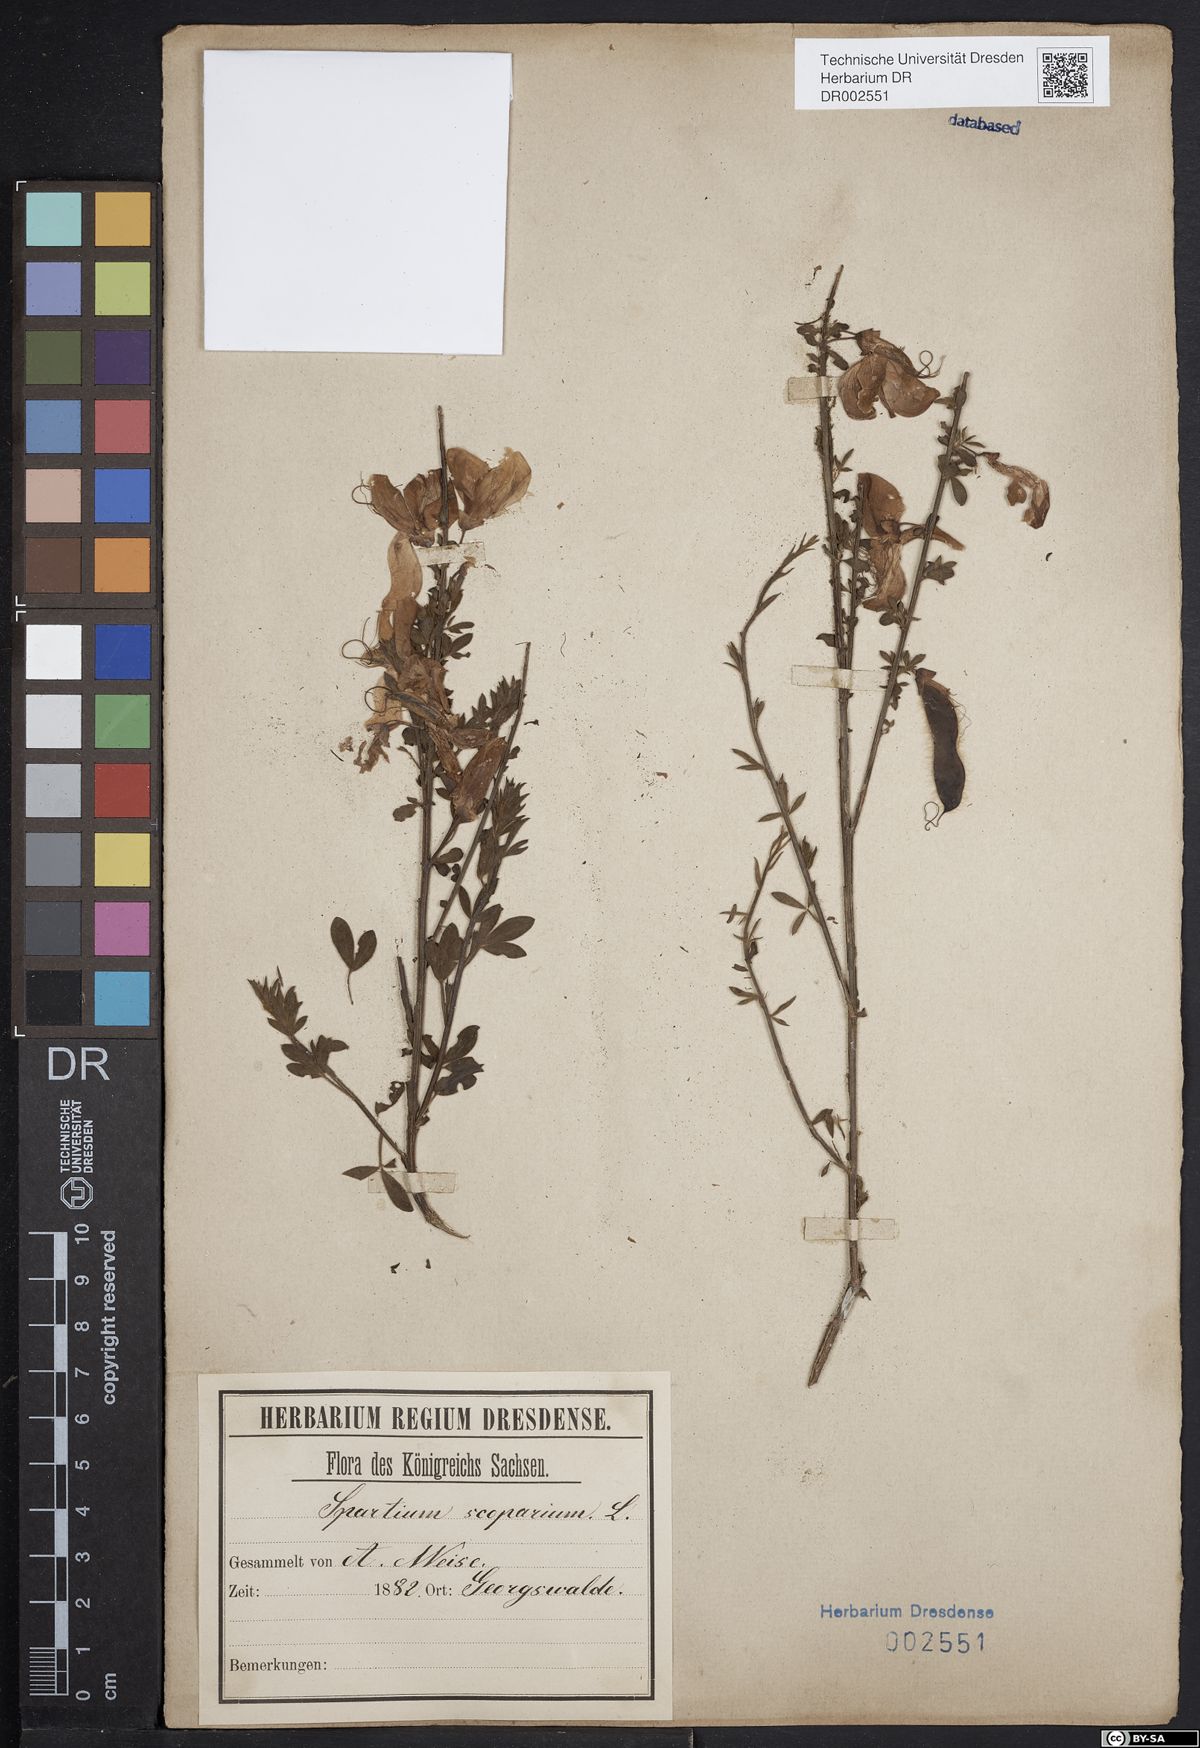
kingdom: Plantae
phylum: Tracheophyta
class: Magnoliopsida
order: Fabales
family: Fabaceae
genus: Cytisus
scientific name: Cytisus scoparius
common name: Scotch broom
